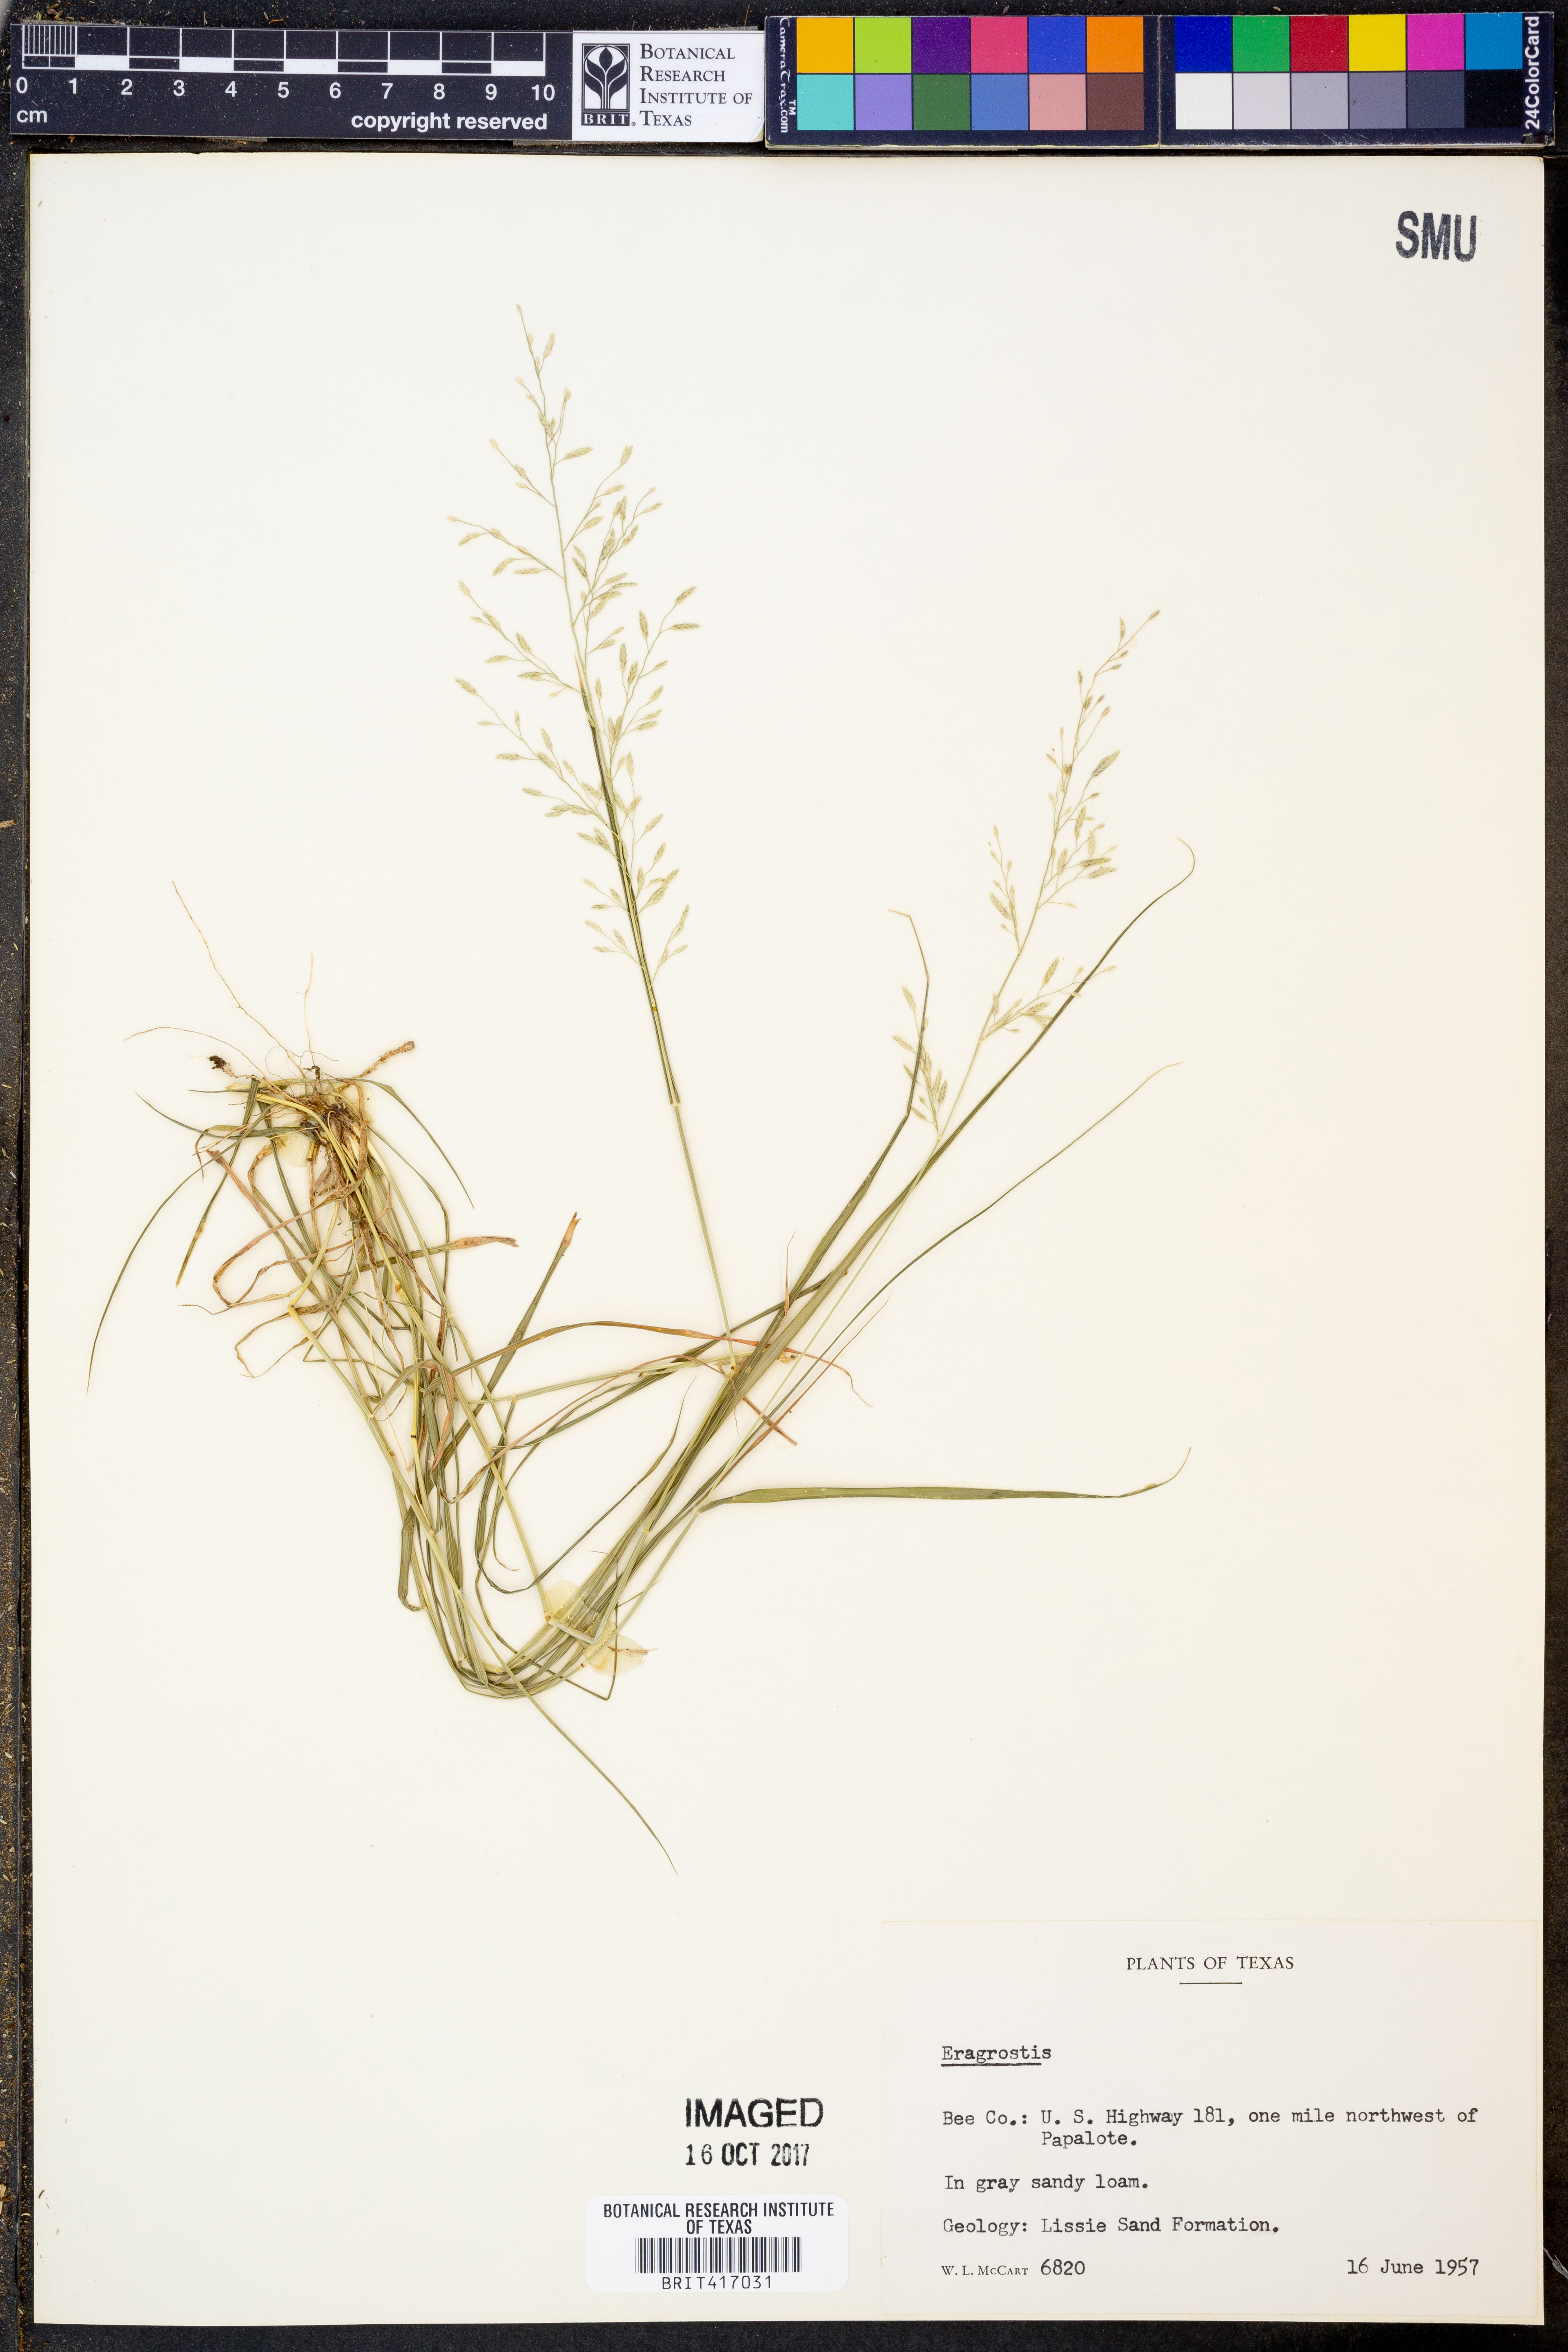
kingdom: Plantae
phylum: Tracheophyta
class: Liliopsida
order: Poales
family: Poaceae
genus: Eragrostis
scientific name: Eragrostis
